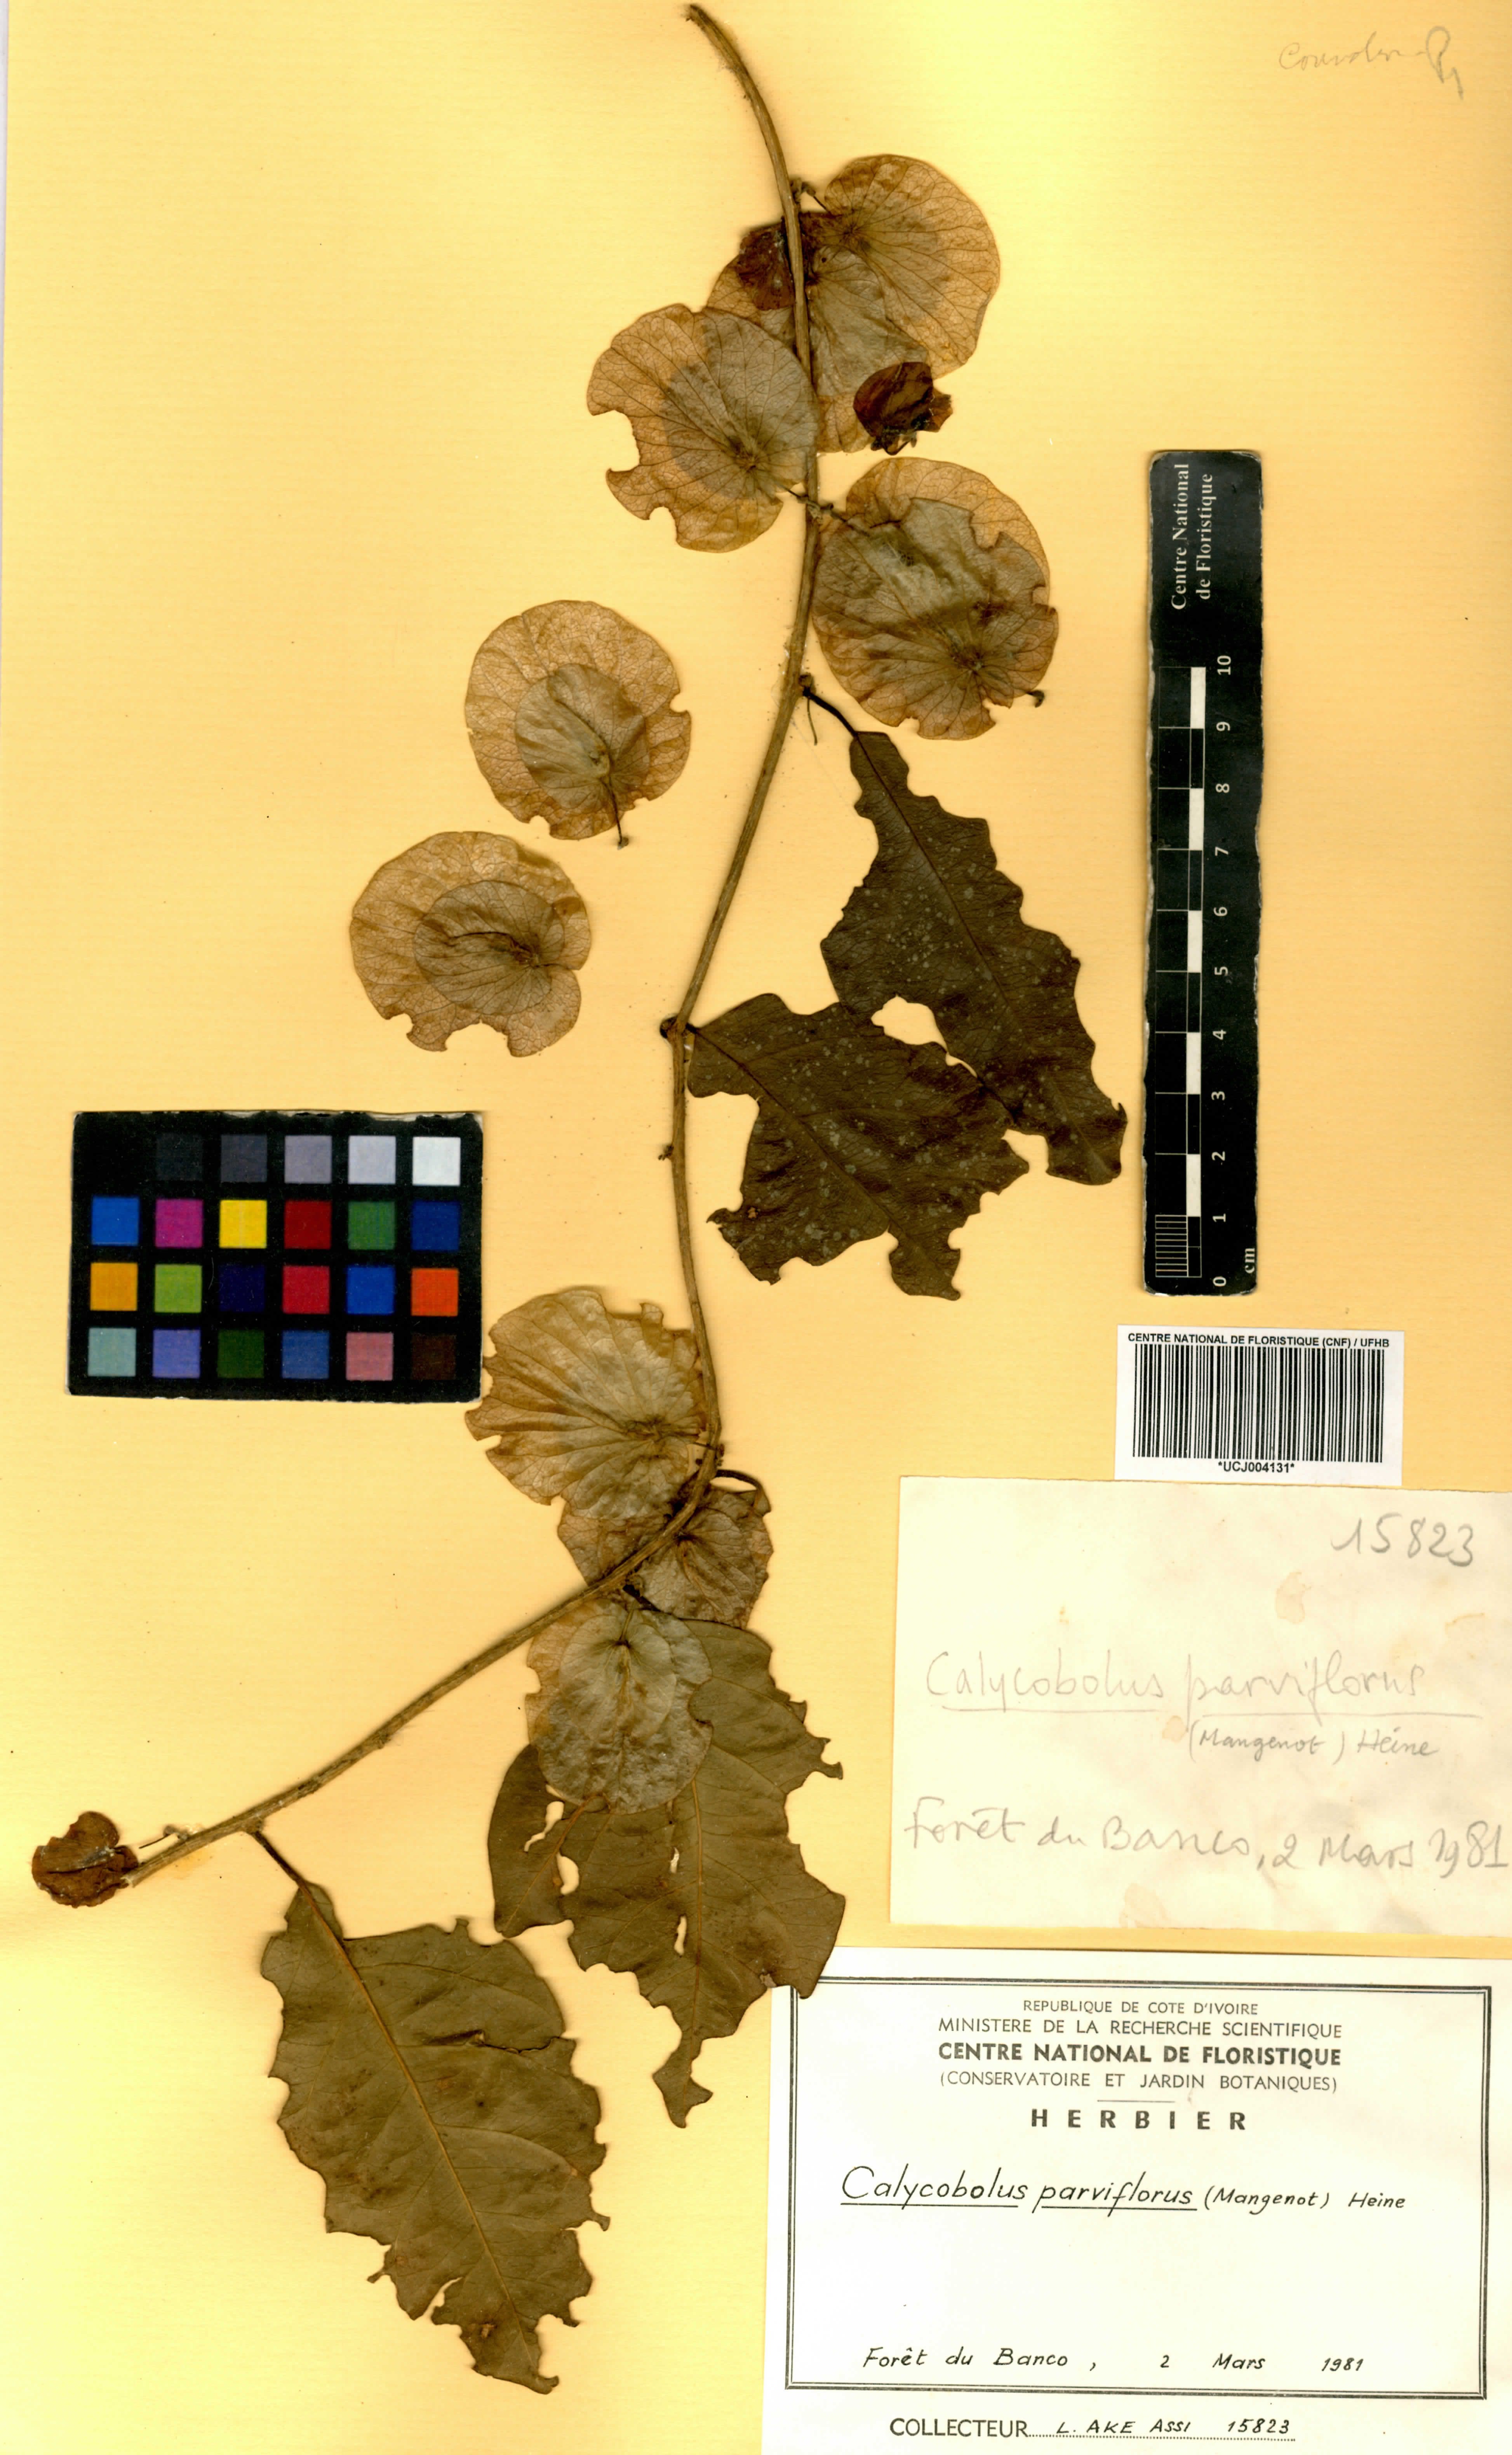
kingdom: Plantae
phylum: Tracheophyta
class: Magnoliopsida
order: Solanales
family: Convolvulaceae
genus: Calycobolus
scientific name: Calycobolus parviflorus
